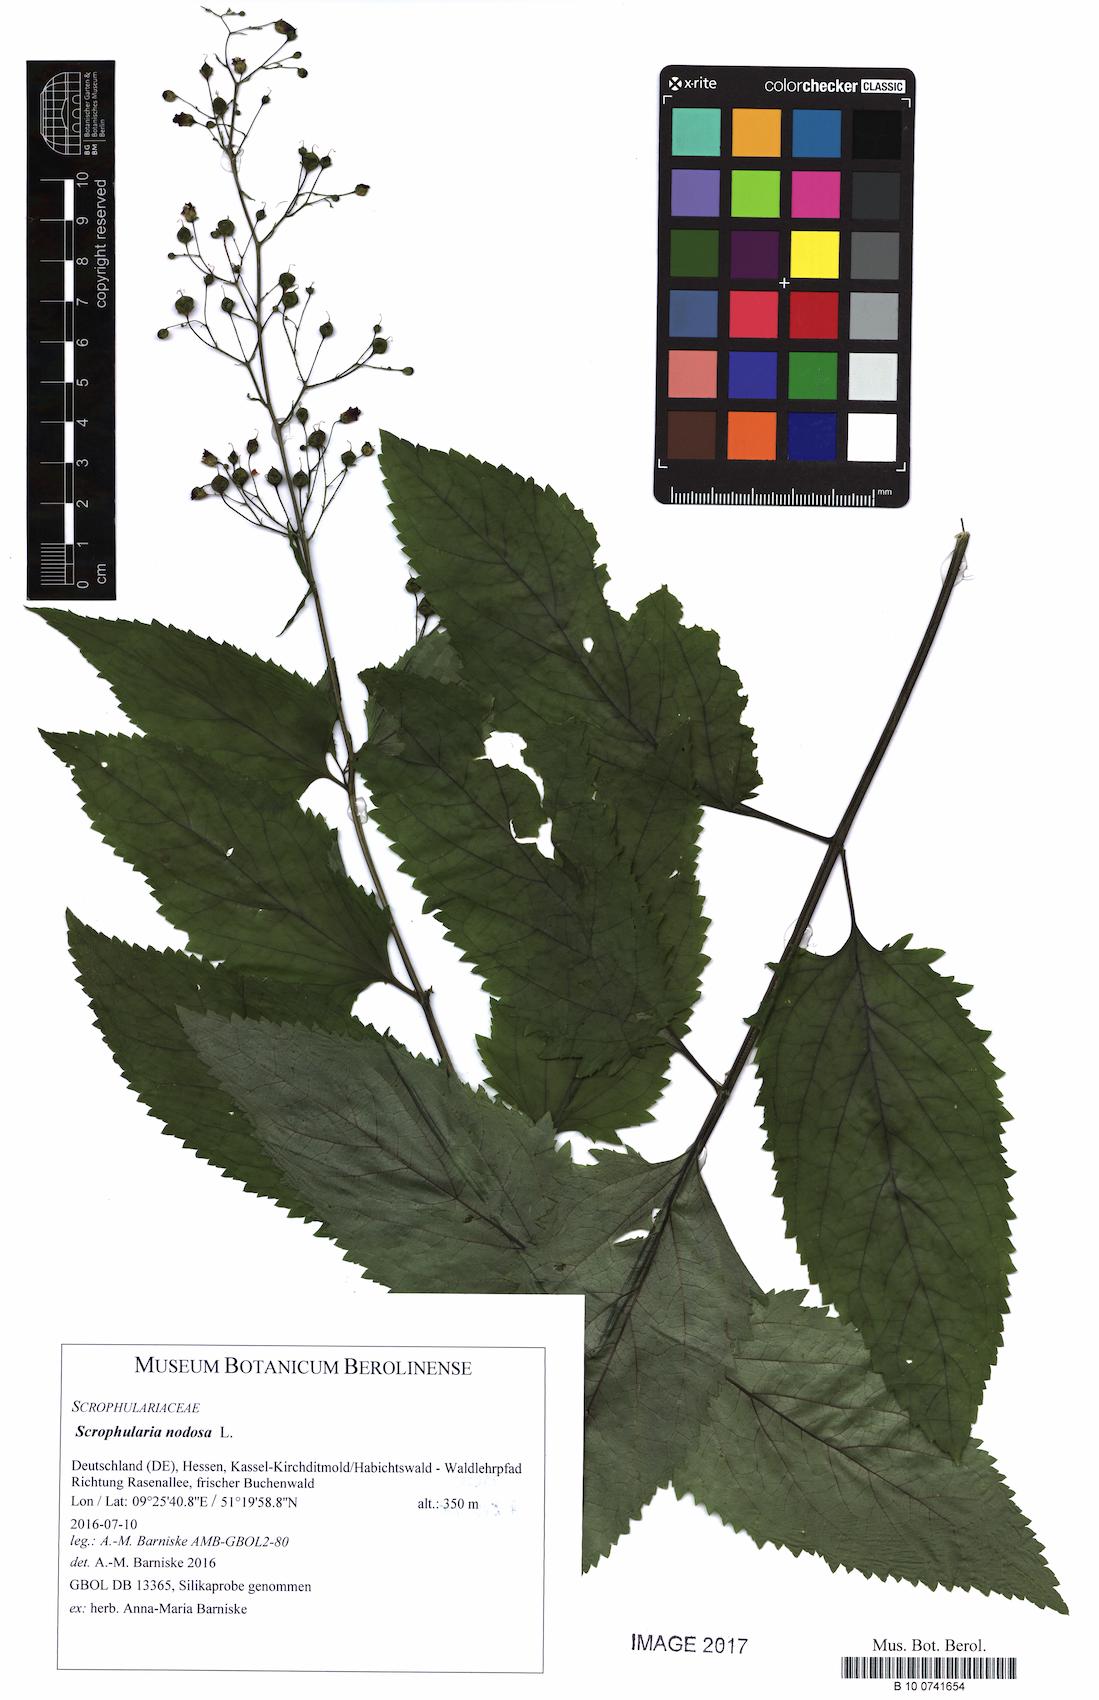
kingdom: Plantae
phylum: Tracheophyta
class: Magnoliopsida
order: Lamiales
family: Scrophulariaceae
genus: Scrophularia
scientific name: Scrophularia nodosa
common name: Common figwort
